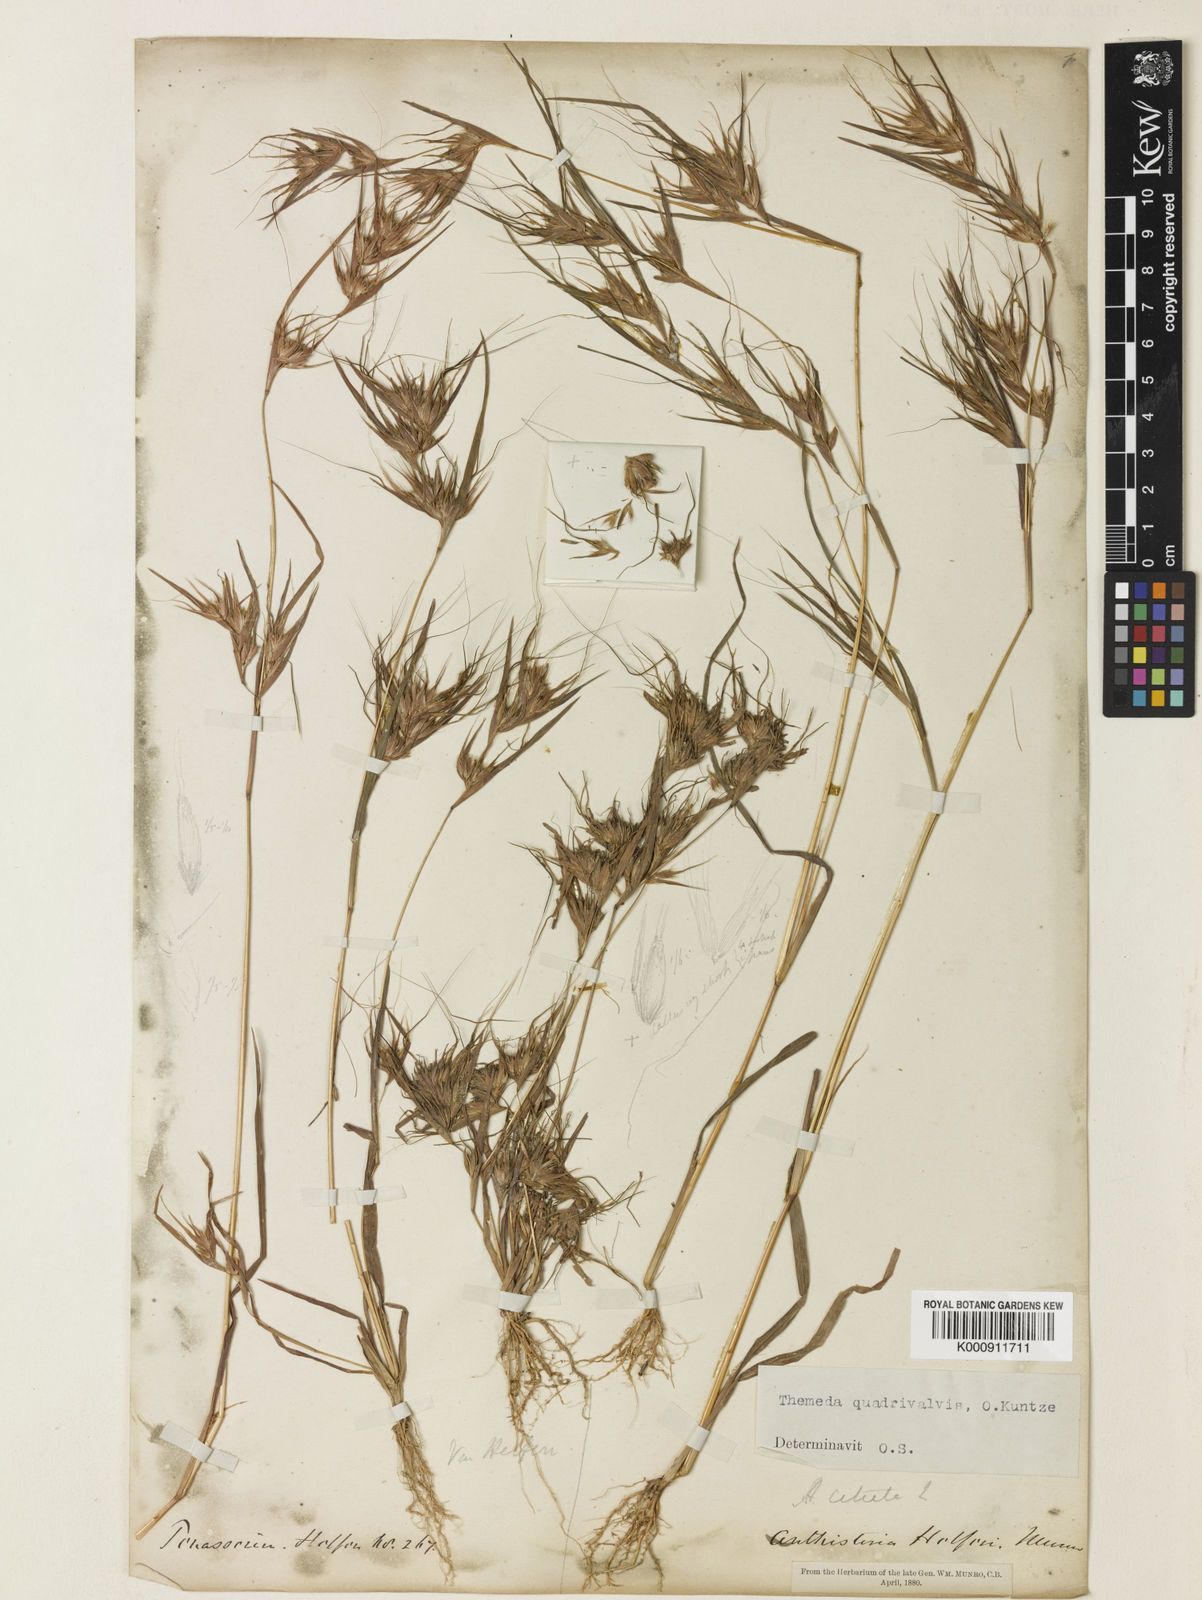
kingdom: Plantae
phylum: Tracheophyta
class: Liliopsida
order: Poales
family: Poaceae
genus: Themeda
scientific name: Themeda helferi
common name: Kangaroo grass
